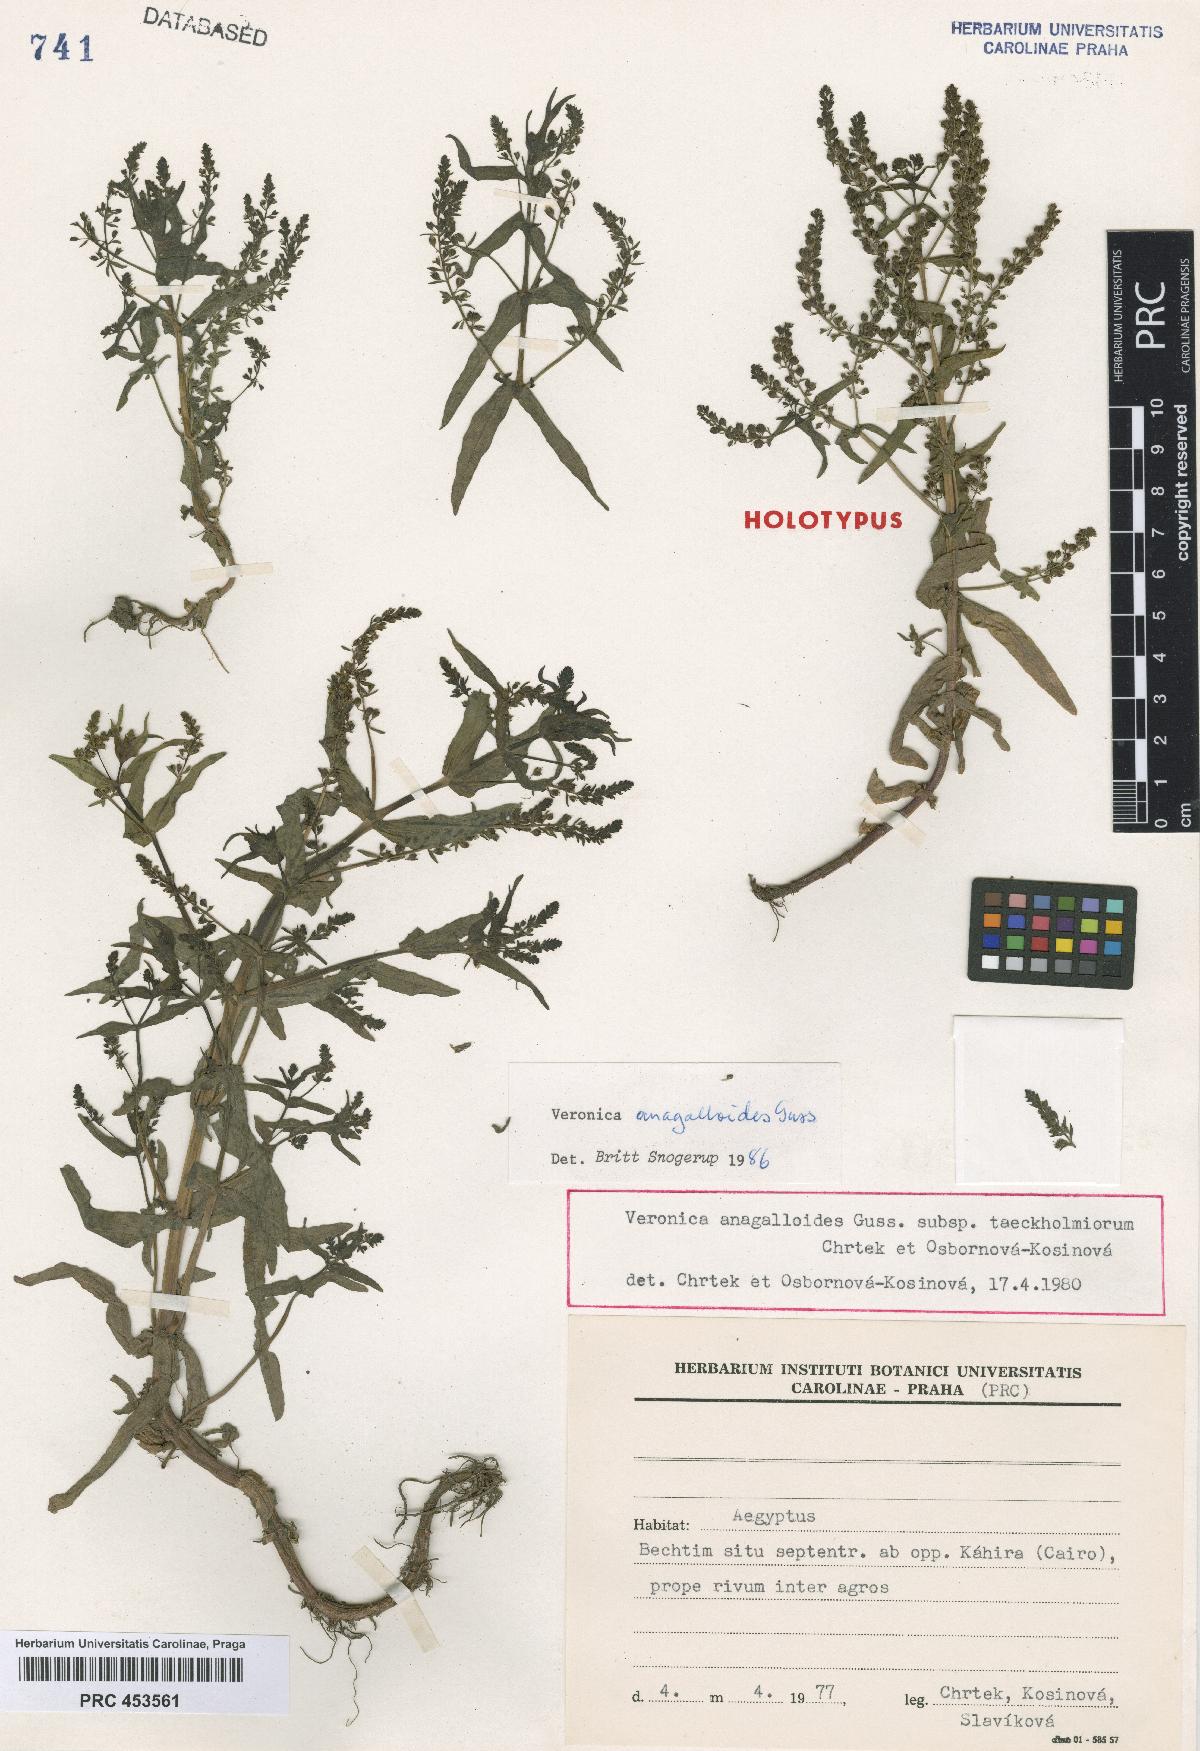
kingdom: Plantae
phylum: Tracheophyta
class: Magnoliopsida
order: Lamiales
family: Plantaginaceae
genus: Veronica
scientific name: Veronica anagalloides
